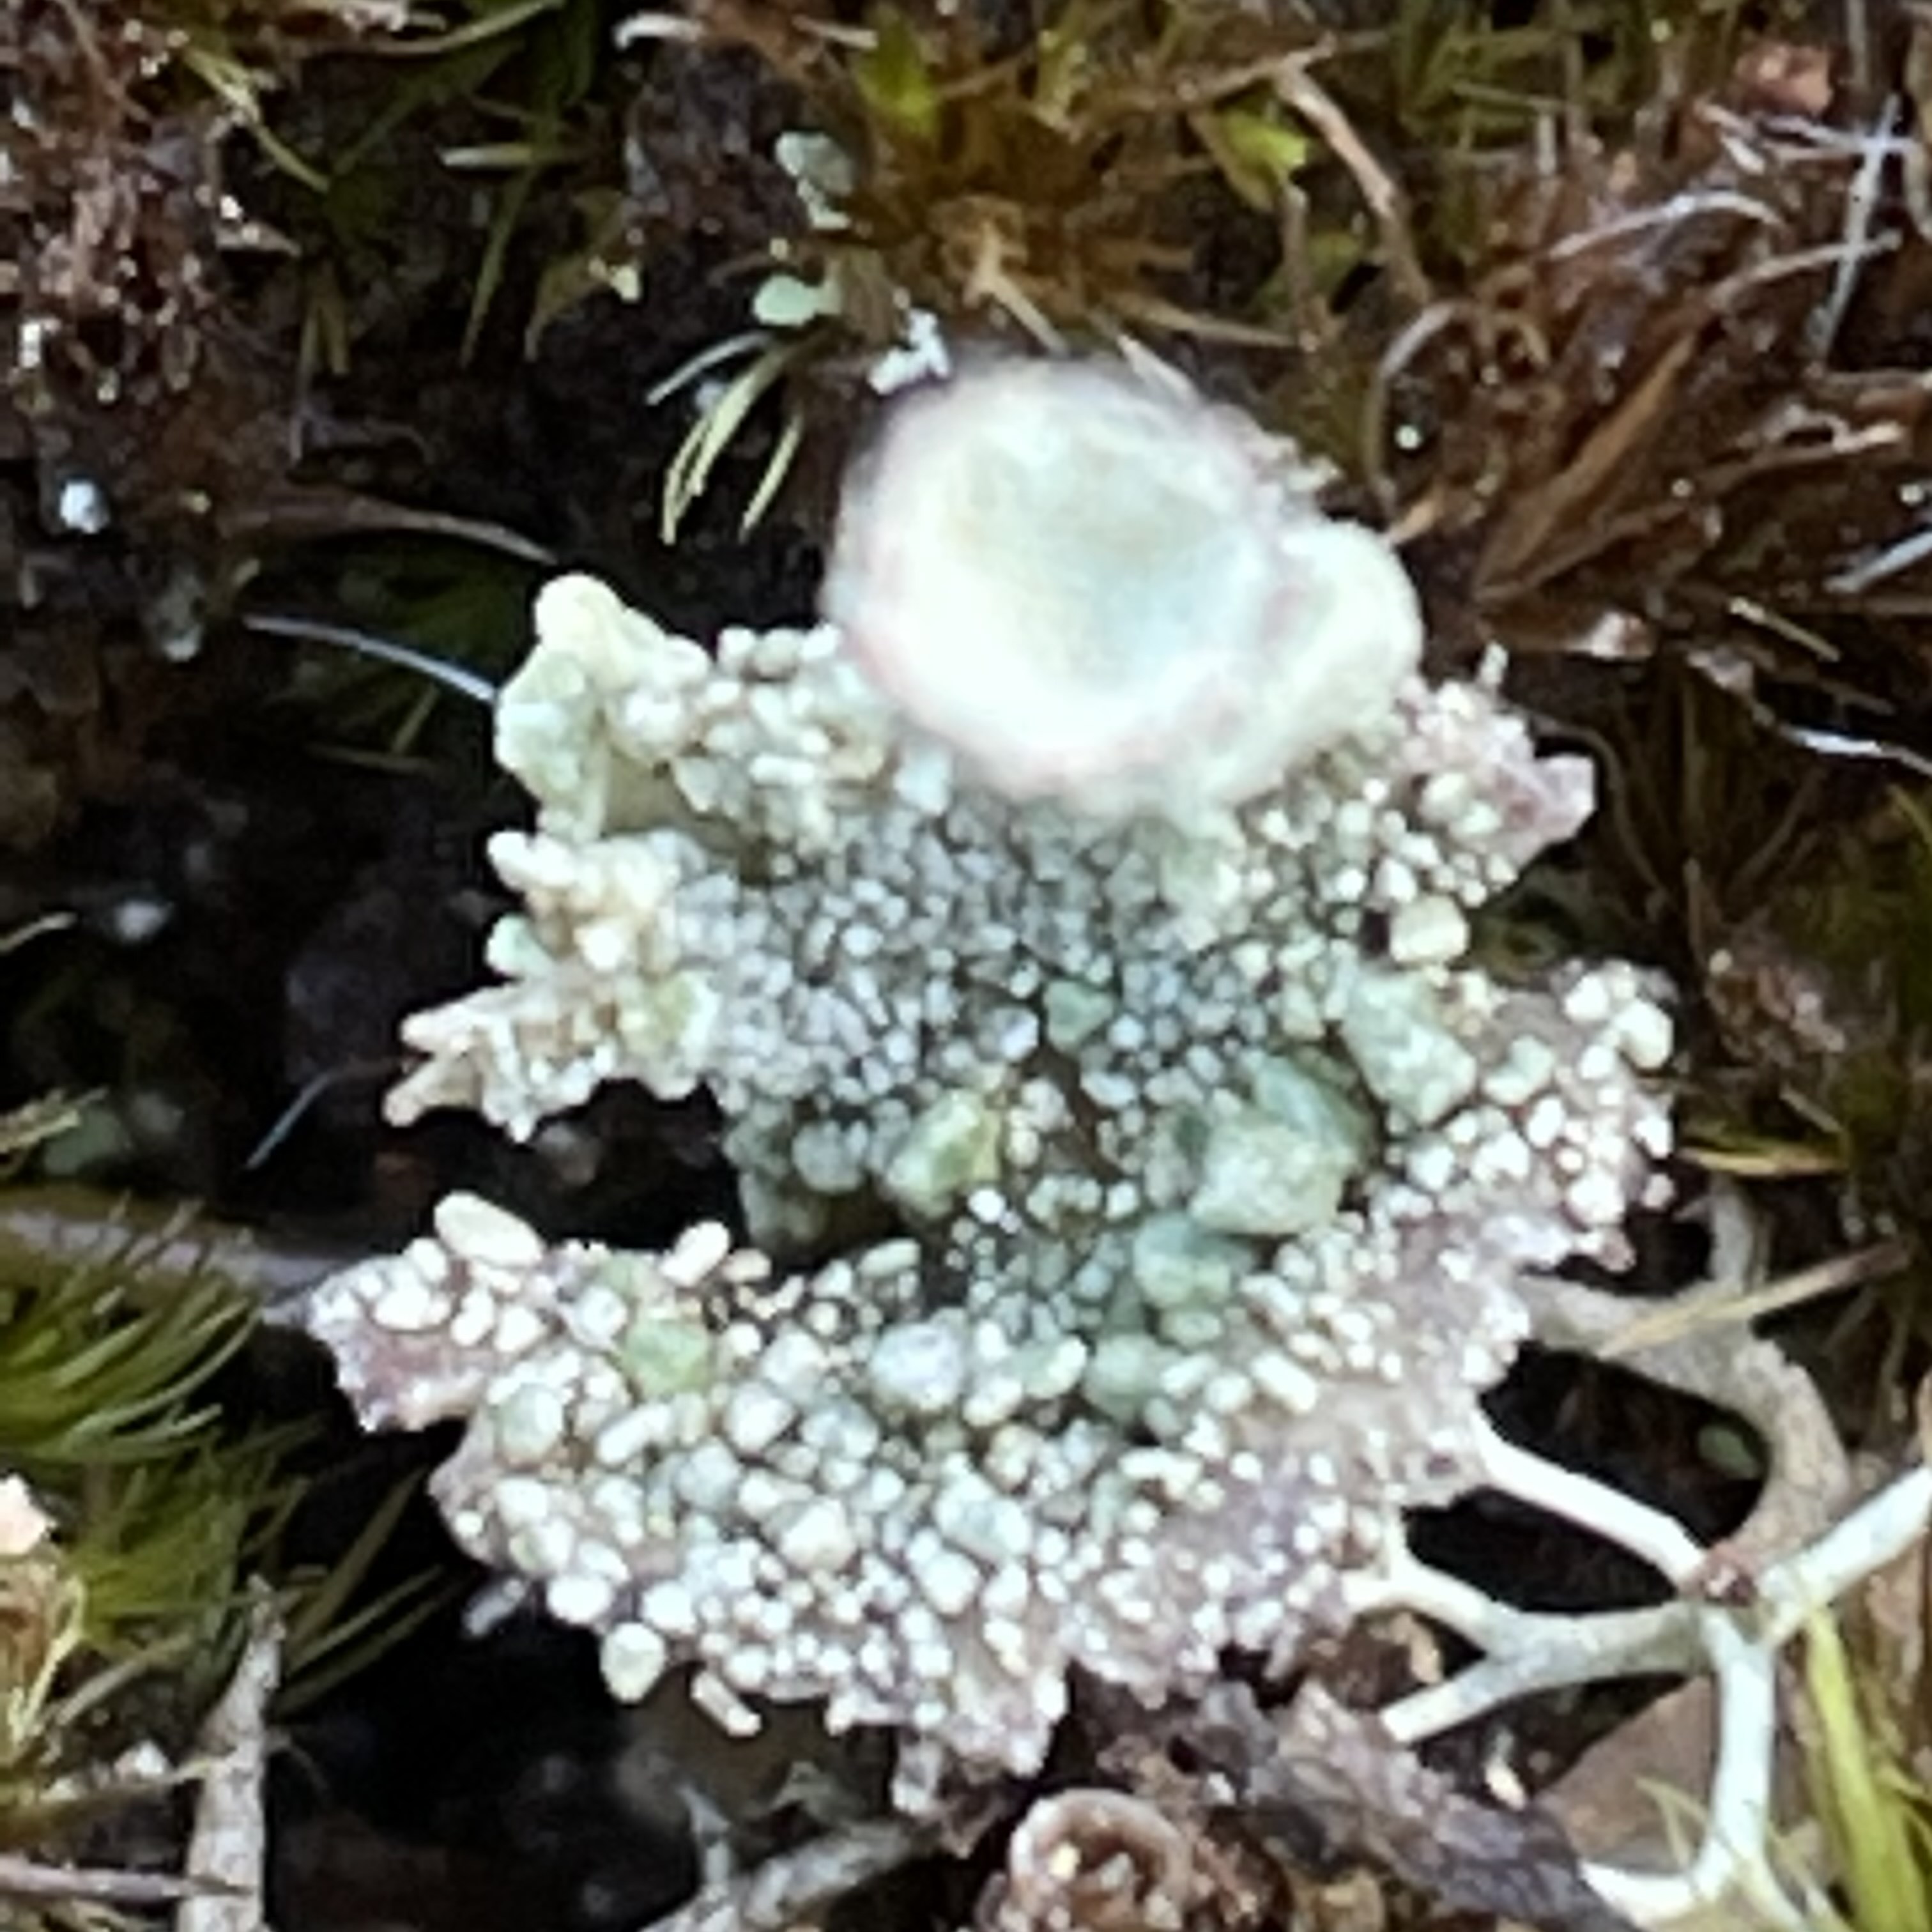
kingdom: Fungi
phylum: Ascomycota
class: Lecanoromycetes
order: Lecanorales
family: Cladoniaceae
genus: Cladonia
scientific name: Cladonia diversa
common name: rød bægerlav
